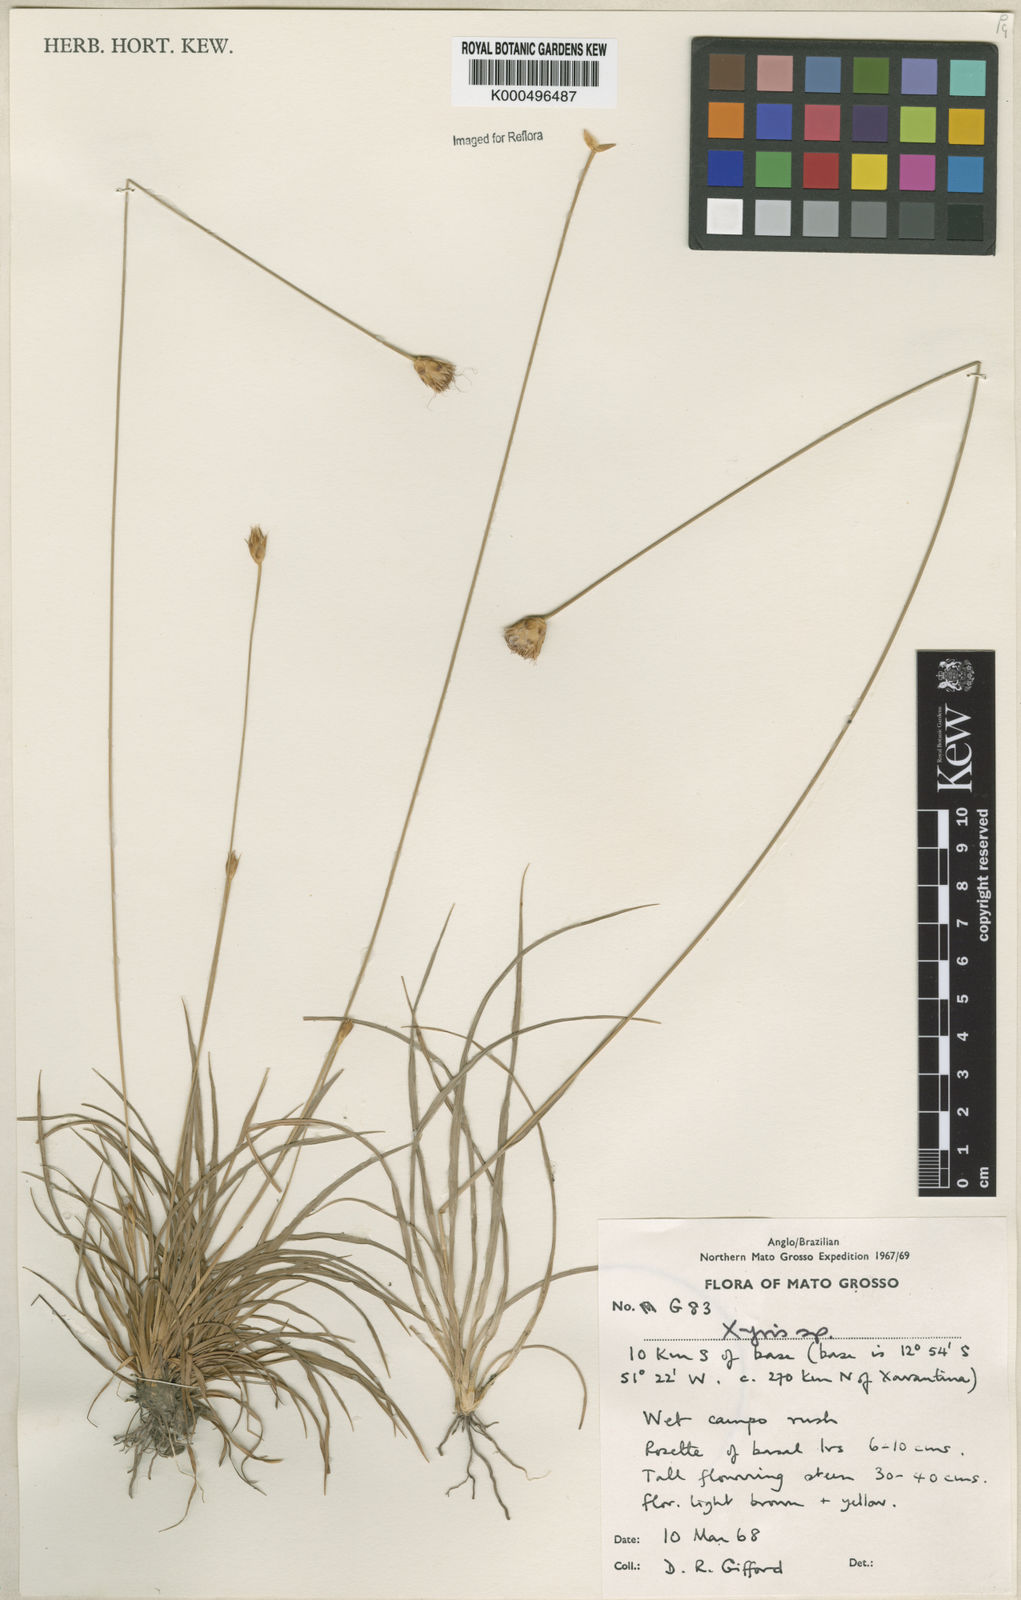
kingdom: Plantae
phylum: Tracheophyta
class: Liliopsida
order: Poales
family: Cyperaceae
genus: Rhynchospora
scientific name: Rhynchospora armerioides
